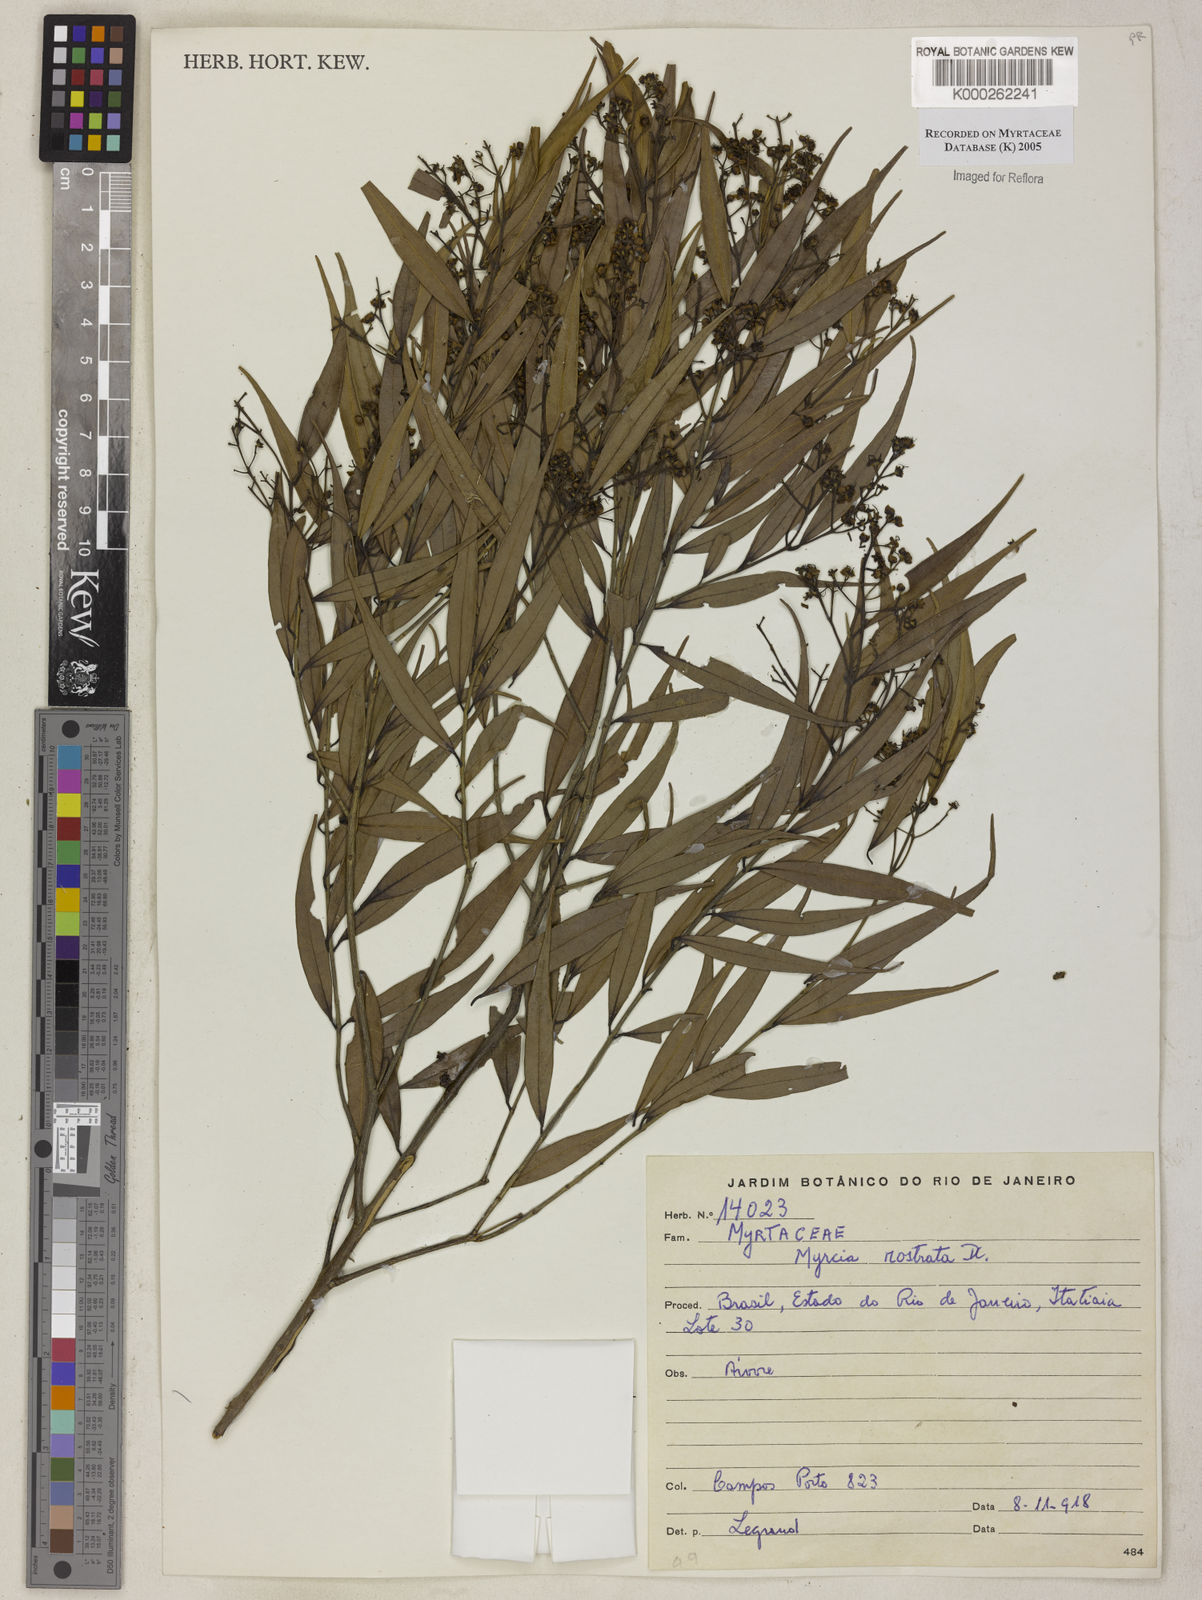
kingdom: Plantae
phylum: Tracheophyta
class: Magnoliopsida
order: Myrtales
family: Myrtaceae
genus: Myrcia
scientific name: Myrcia splendens
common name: Surinam cherry
